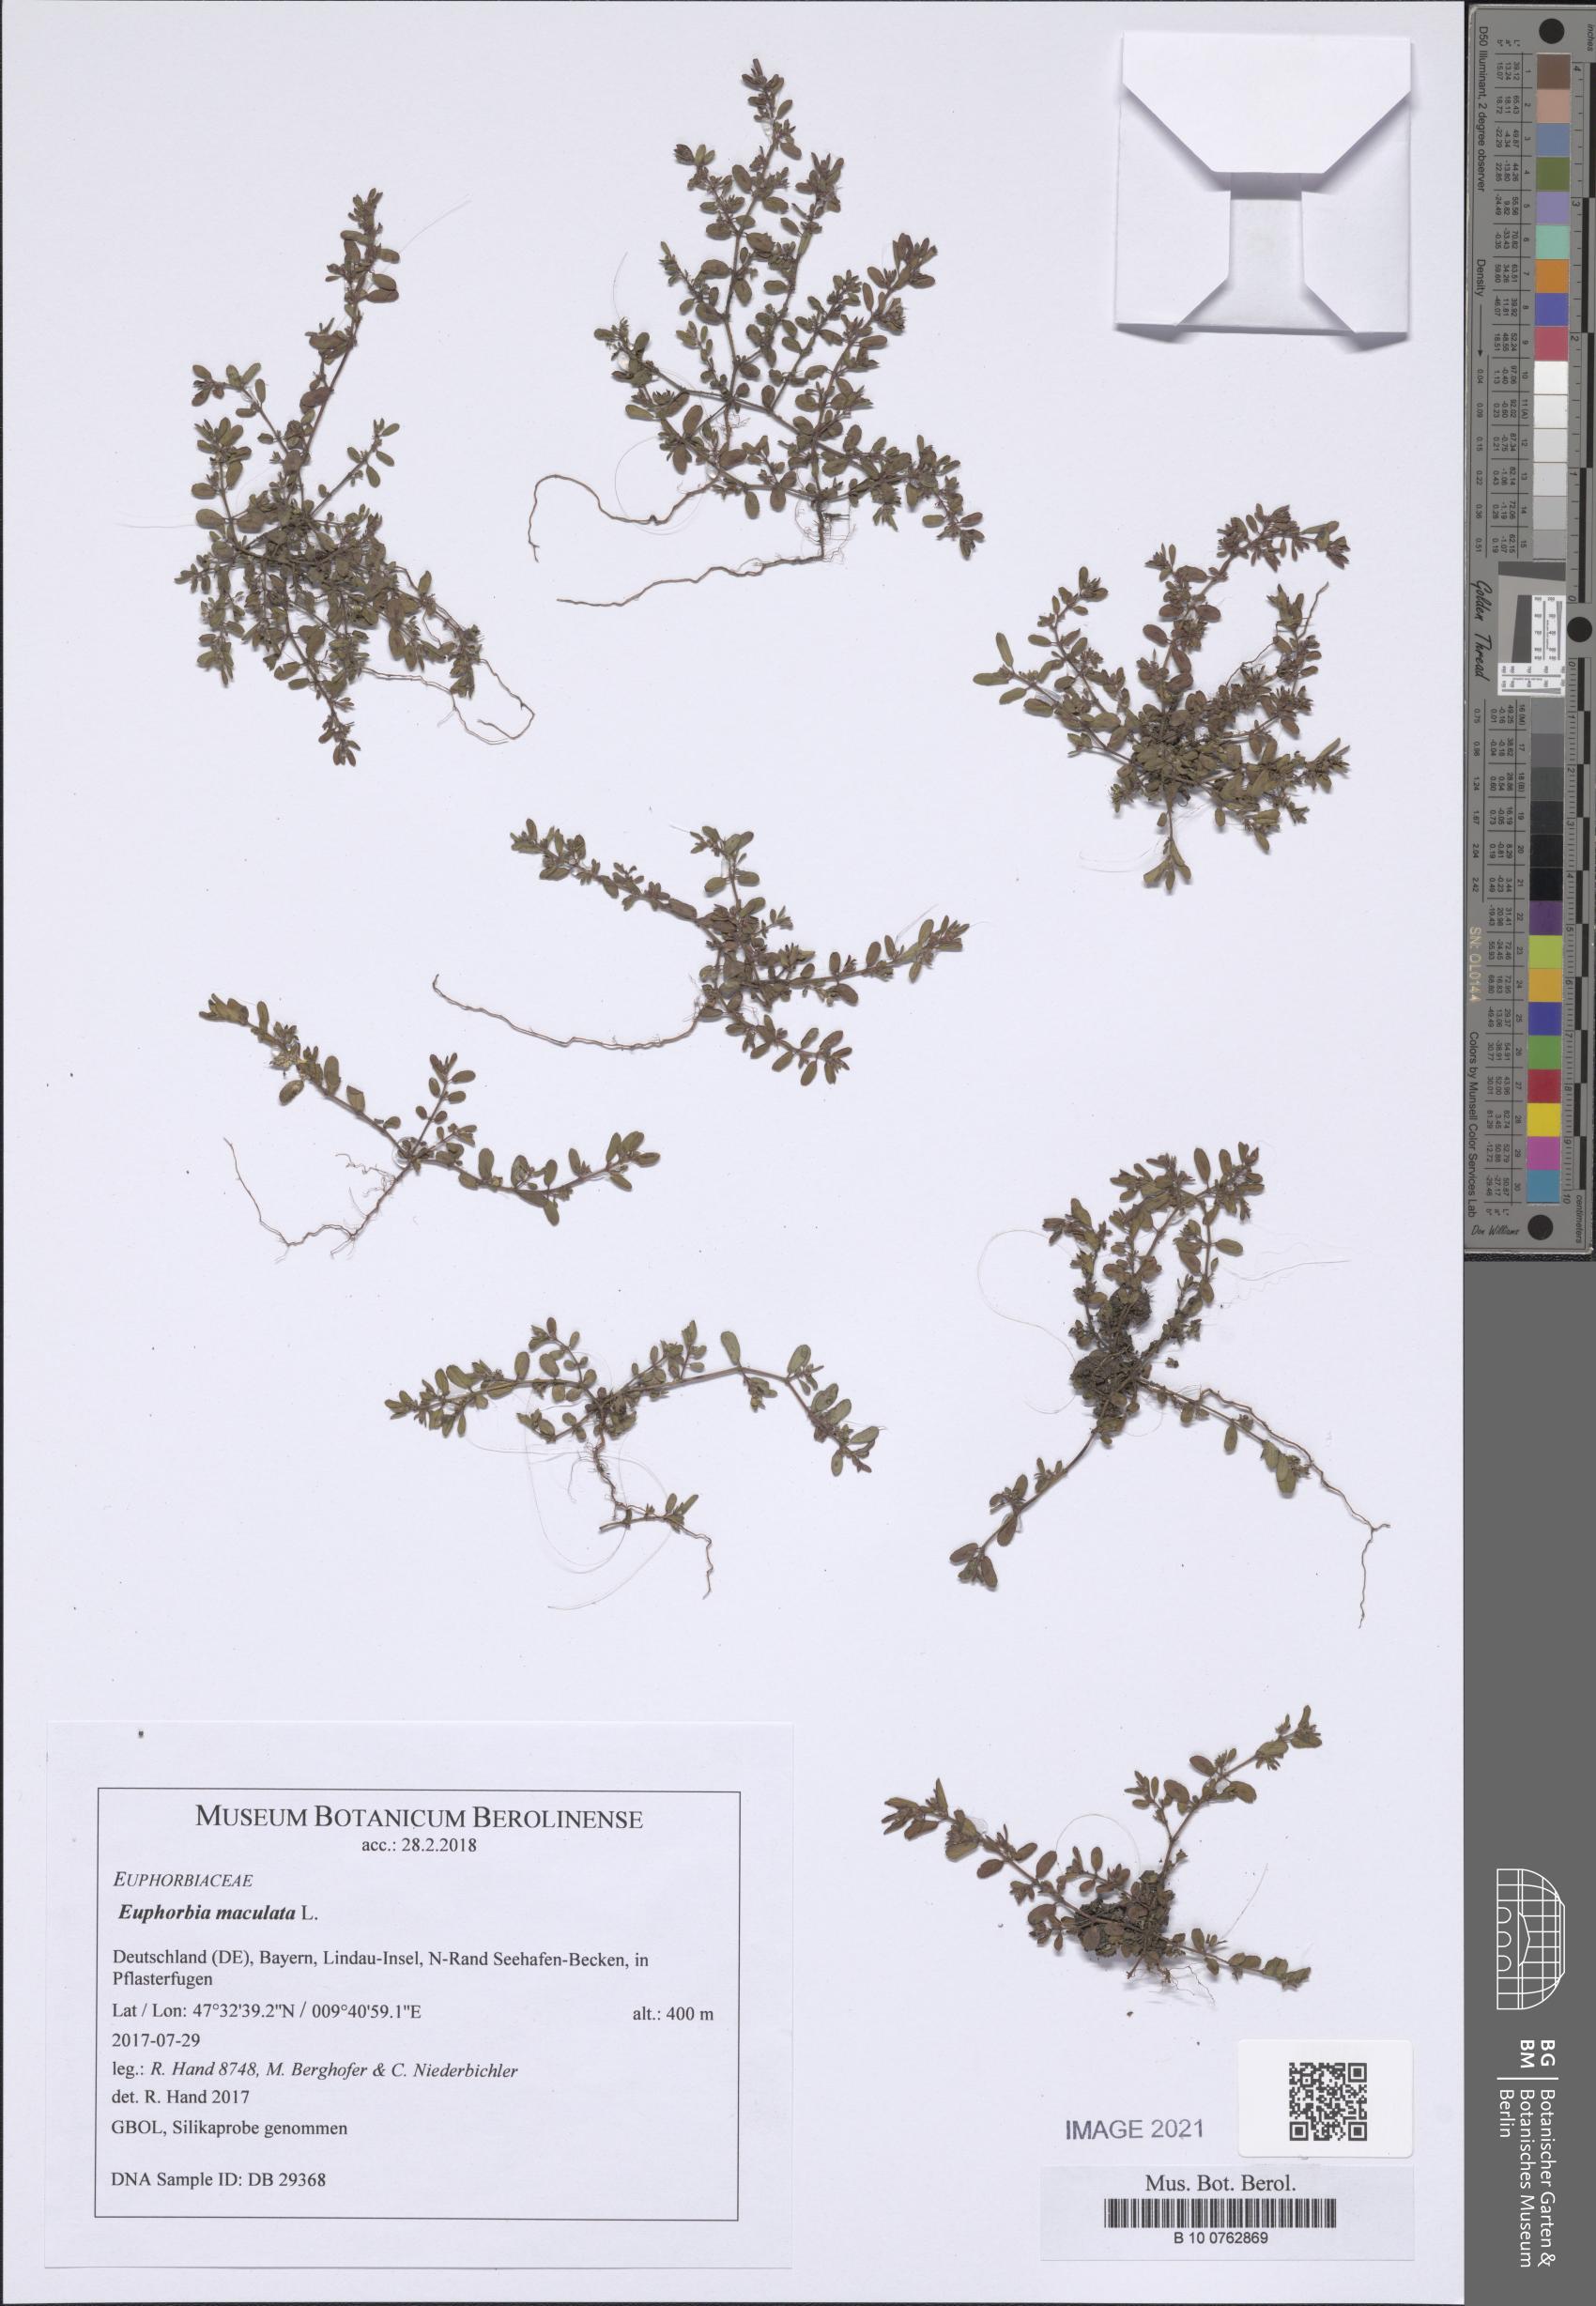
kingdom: Plantae
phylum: Tracheophyta
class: Magnoliopsida
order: Malpighiales
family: Euphorbiaceae
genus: Euphorbia
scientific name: Euphorbia maculata
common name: Spotted spurge
